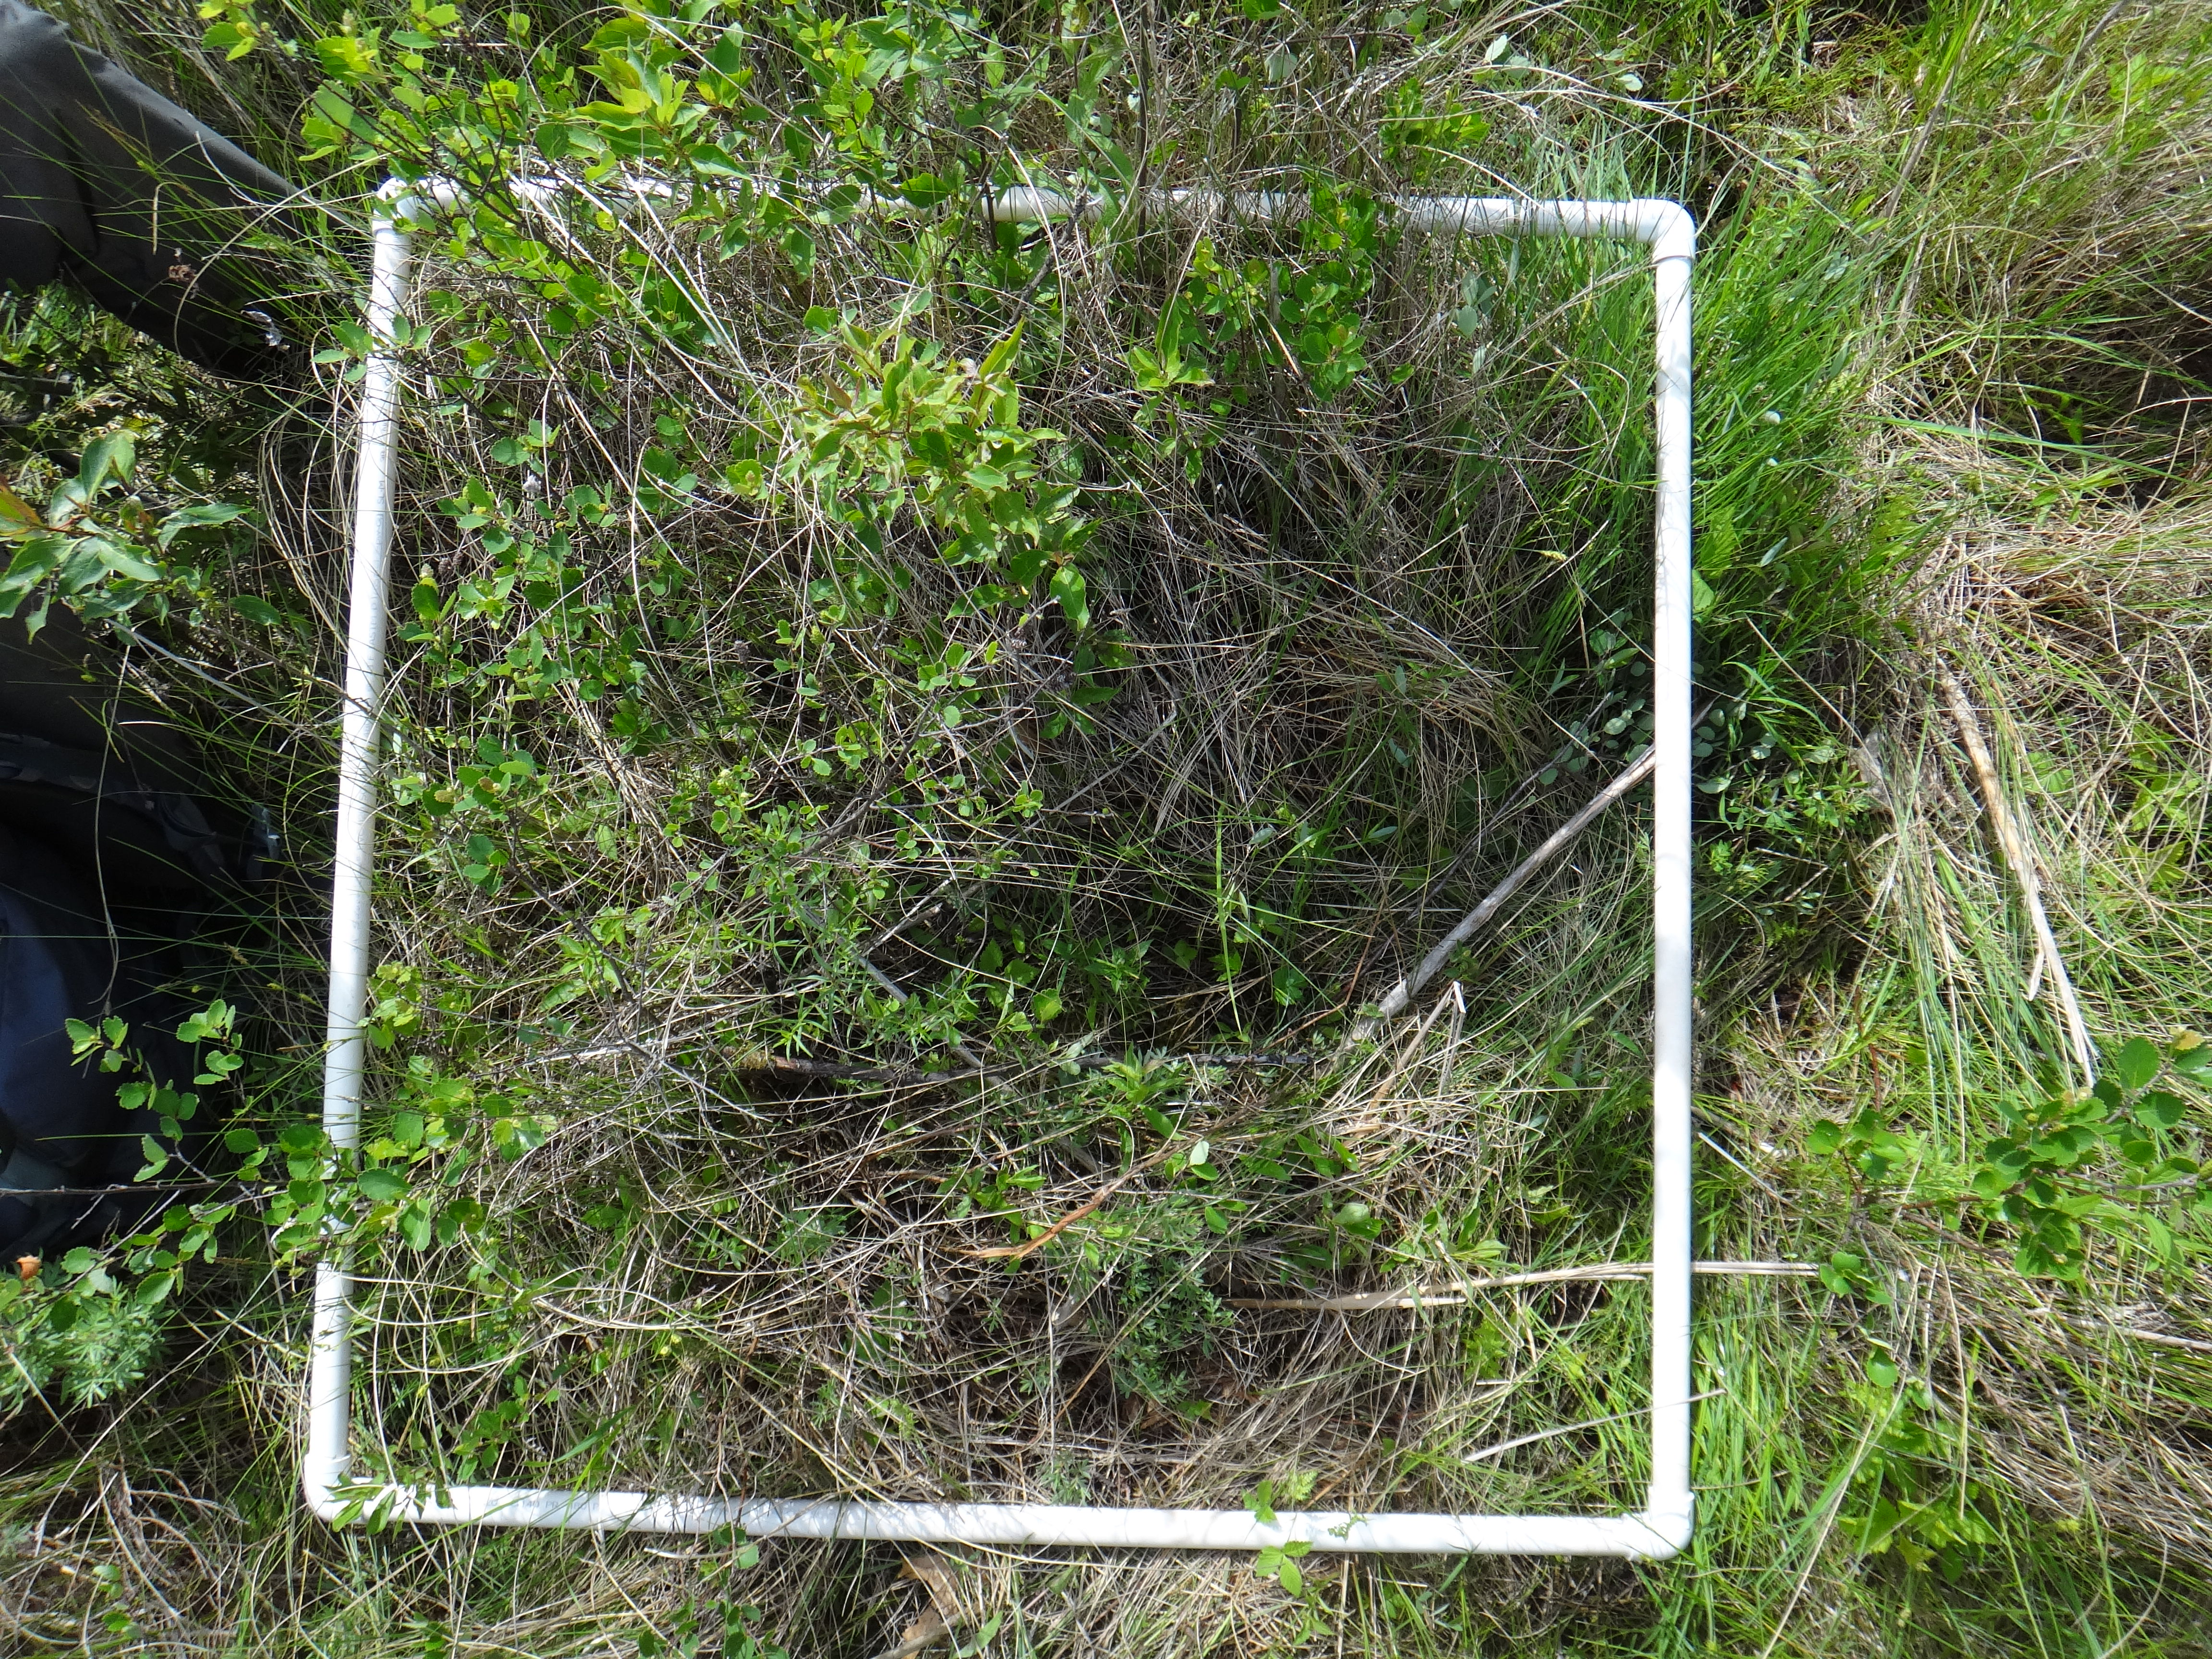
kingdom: Plantae
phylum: Tracheophyta
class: Polypodiopsida
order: Polypodiales
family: Thelypteridaceae
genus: Thelypteris
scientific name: Thelypteris palustris
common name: Marsh fern
